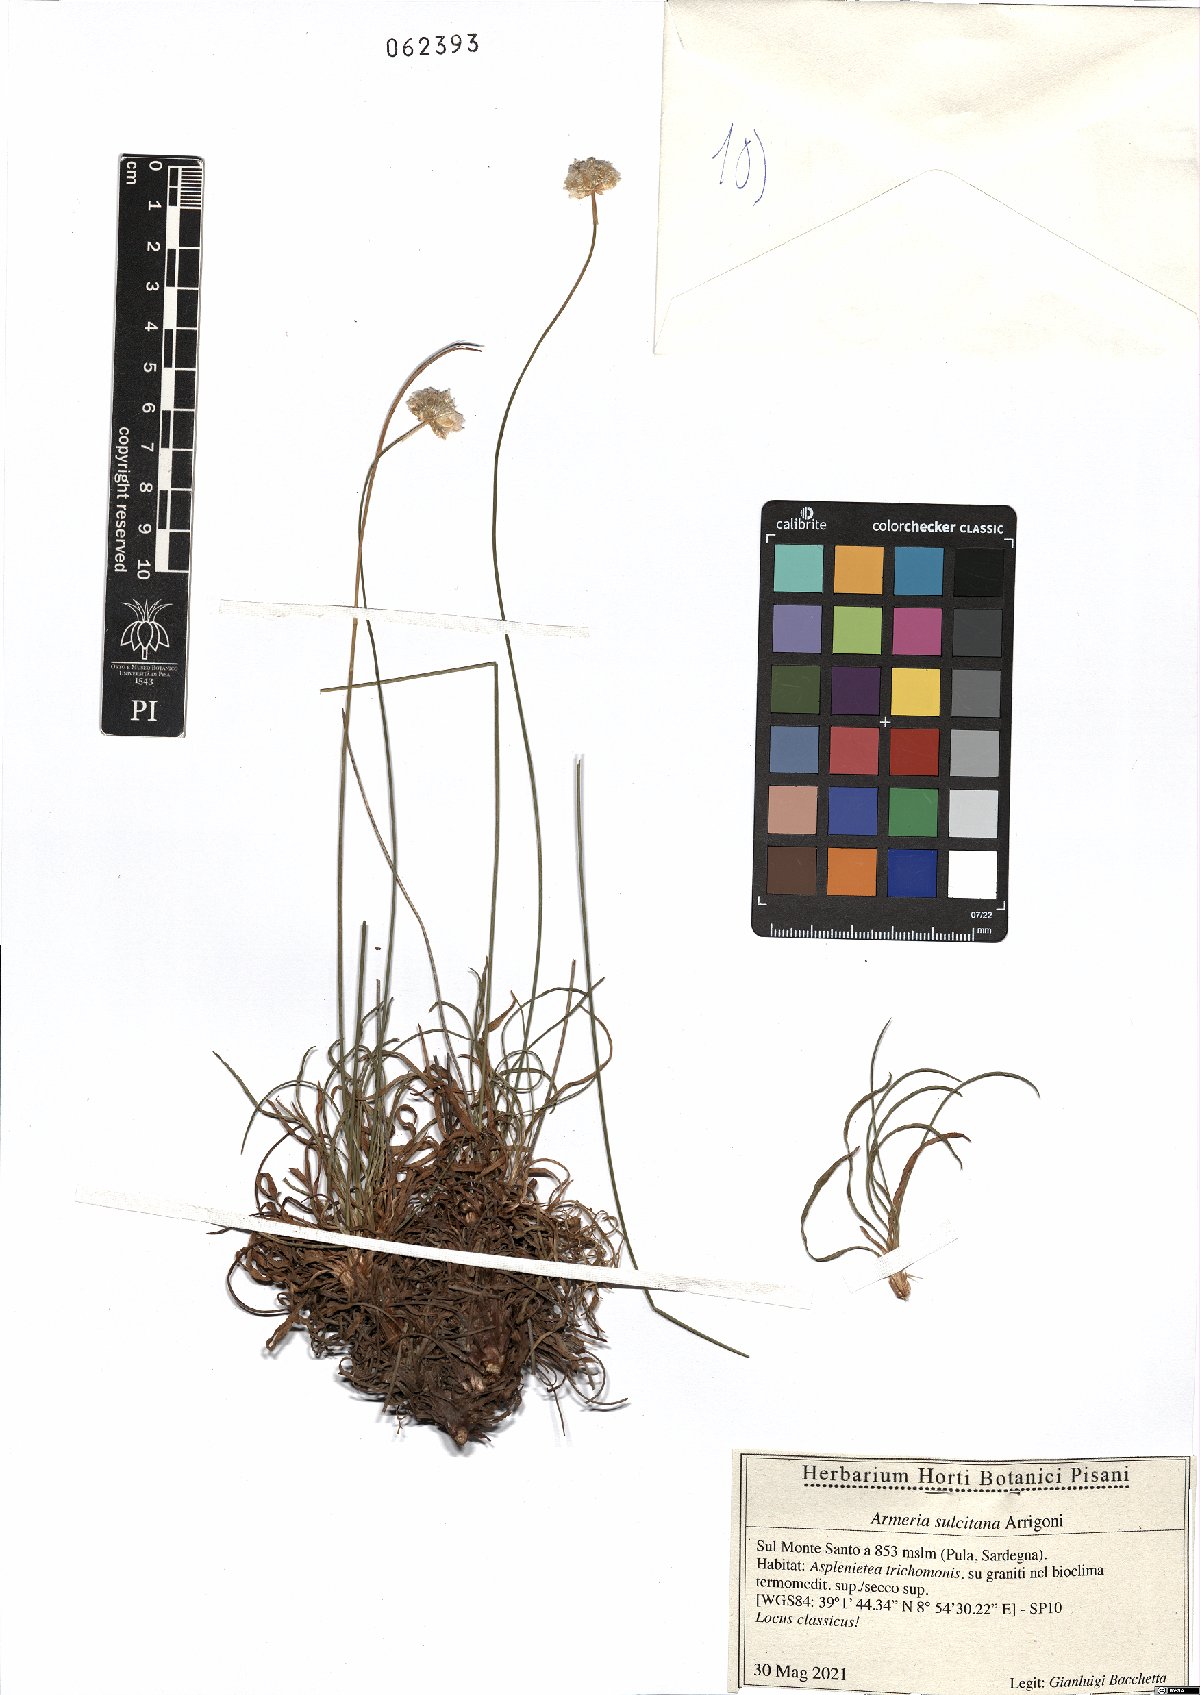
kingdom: Plantae
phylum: Tracheophyta
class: Magnoliopsida
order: Caryophyllales
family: Plumbaginaceae
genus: Armeria
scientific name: Armeria sulcitana
